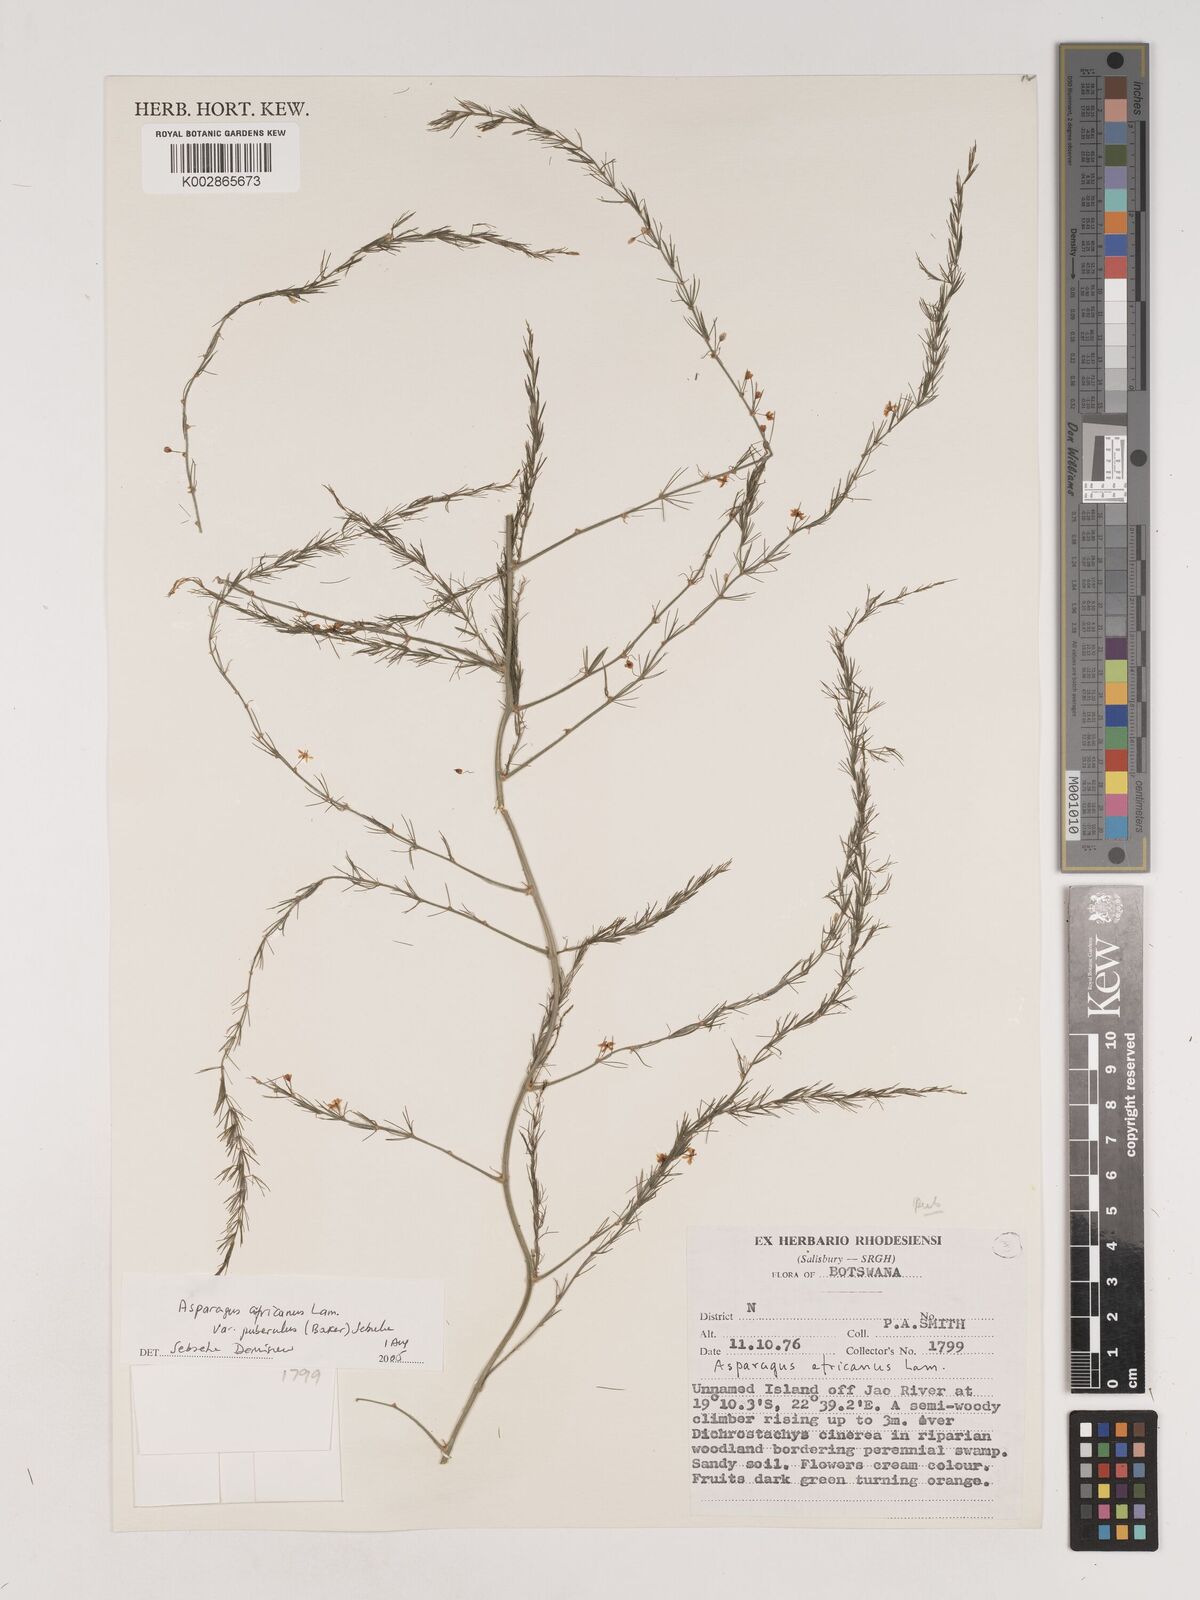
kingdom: Plantae
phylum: Tracheophyta
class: Liliopsida
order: Asparagales
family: Asparagaceae
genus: Asparagus
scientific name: Asparagus africanus
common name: Asparagus-fern
